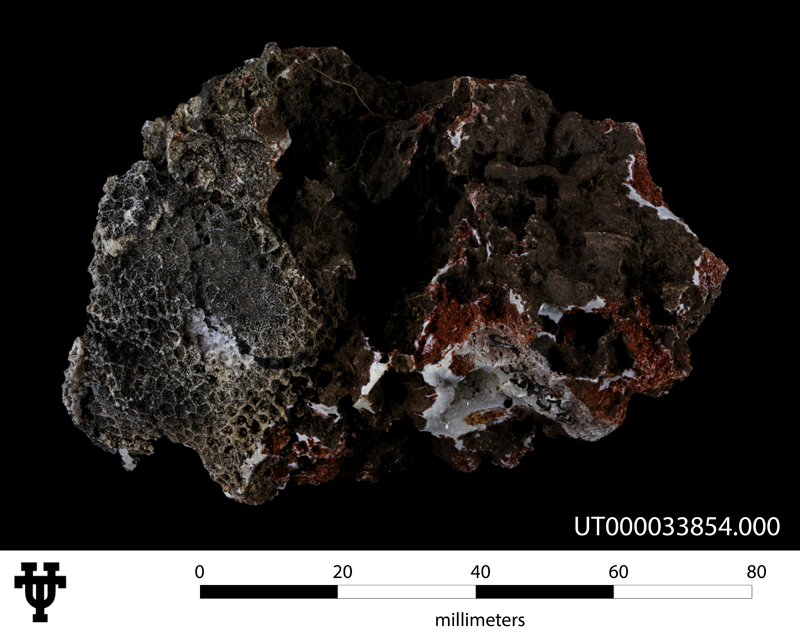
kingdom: Animalia
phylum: Cnidaria
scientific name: Cnidaria
